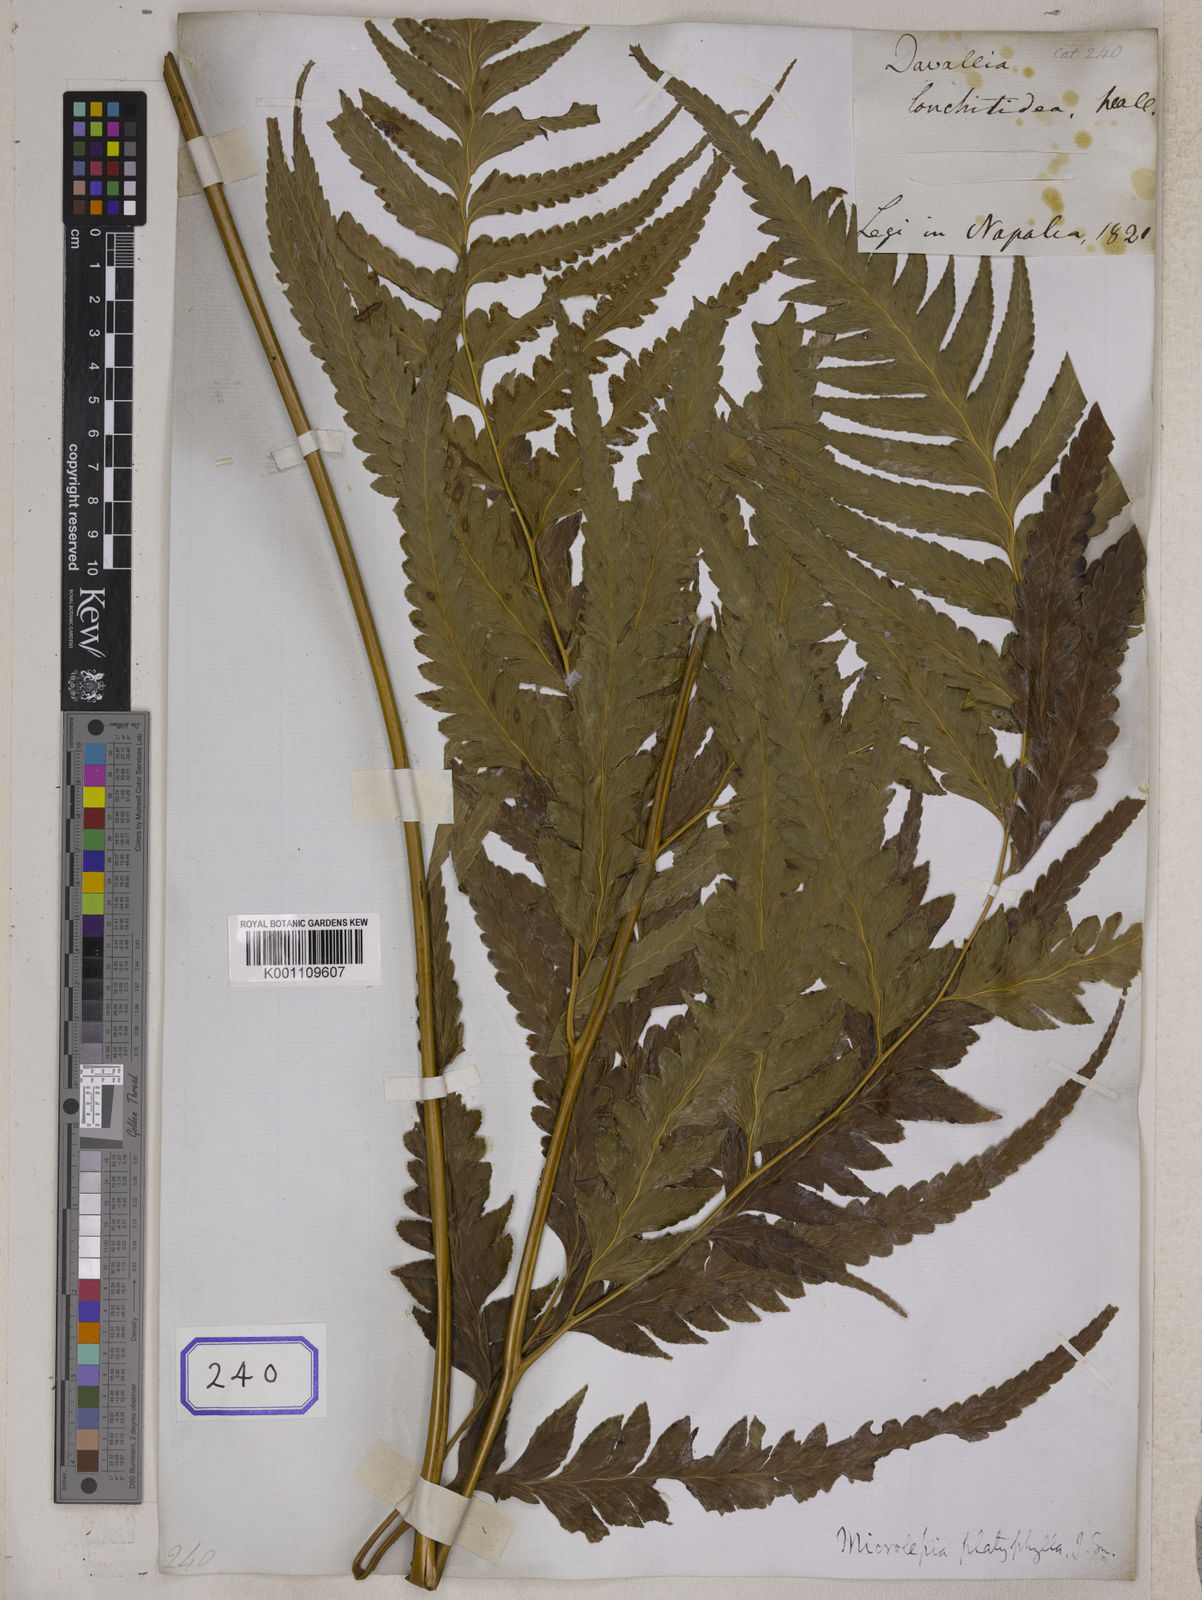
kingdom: Plantae
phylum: Tracheophyta
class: Polypodiopsida
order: Polypodiales
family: Dennstaedtiaceae
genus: Microlepia
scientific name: Microlepia platyphylla
